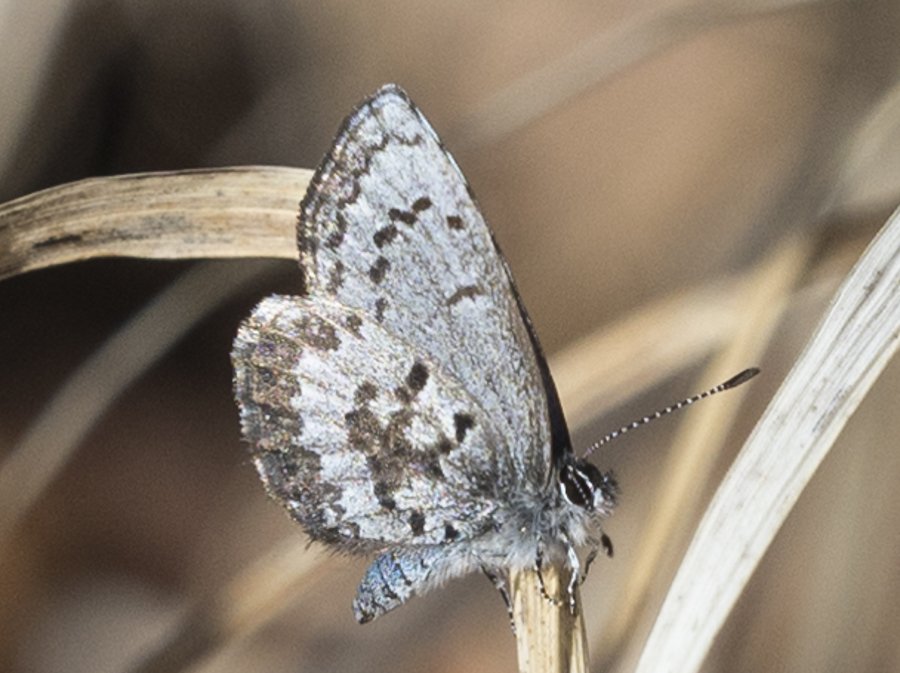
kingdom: Animalia
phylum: Arthropoda
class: Insecta
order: Lepidoptera
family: Lycaenidae
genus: Celastrina
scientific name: Celastrina lucia
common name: Northern Spring Azure
